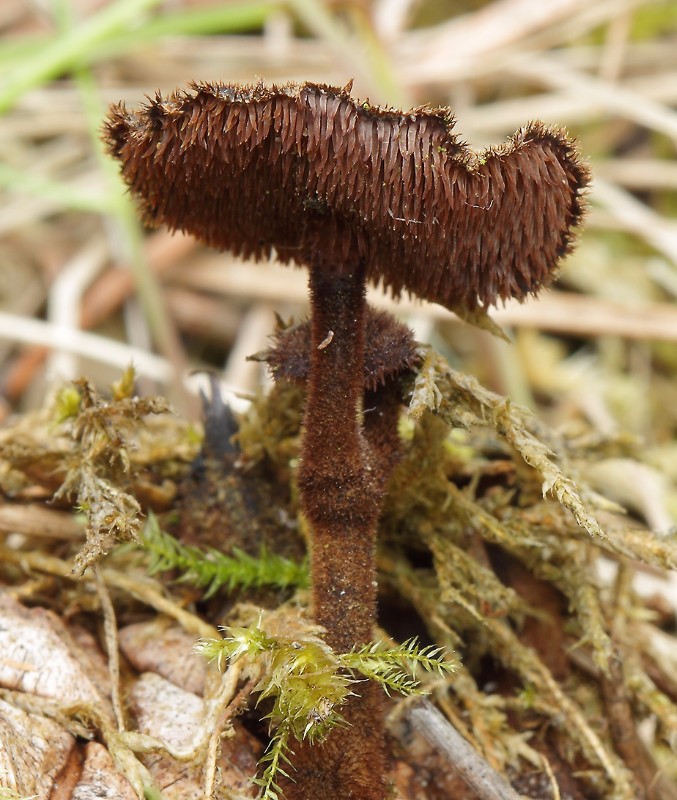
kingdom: Fungi
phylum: Basidiomycota
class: Agaricomycetes
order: Russulales
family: Auriscalpiaceae
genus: Auriscalpium
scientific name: Auriscalpium vulgare
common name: koglepigsvamp
